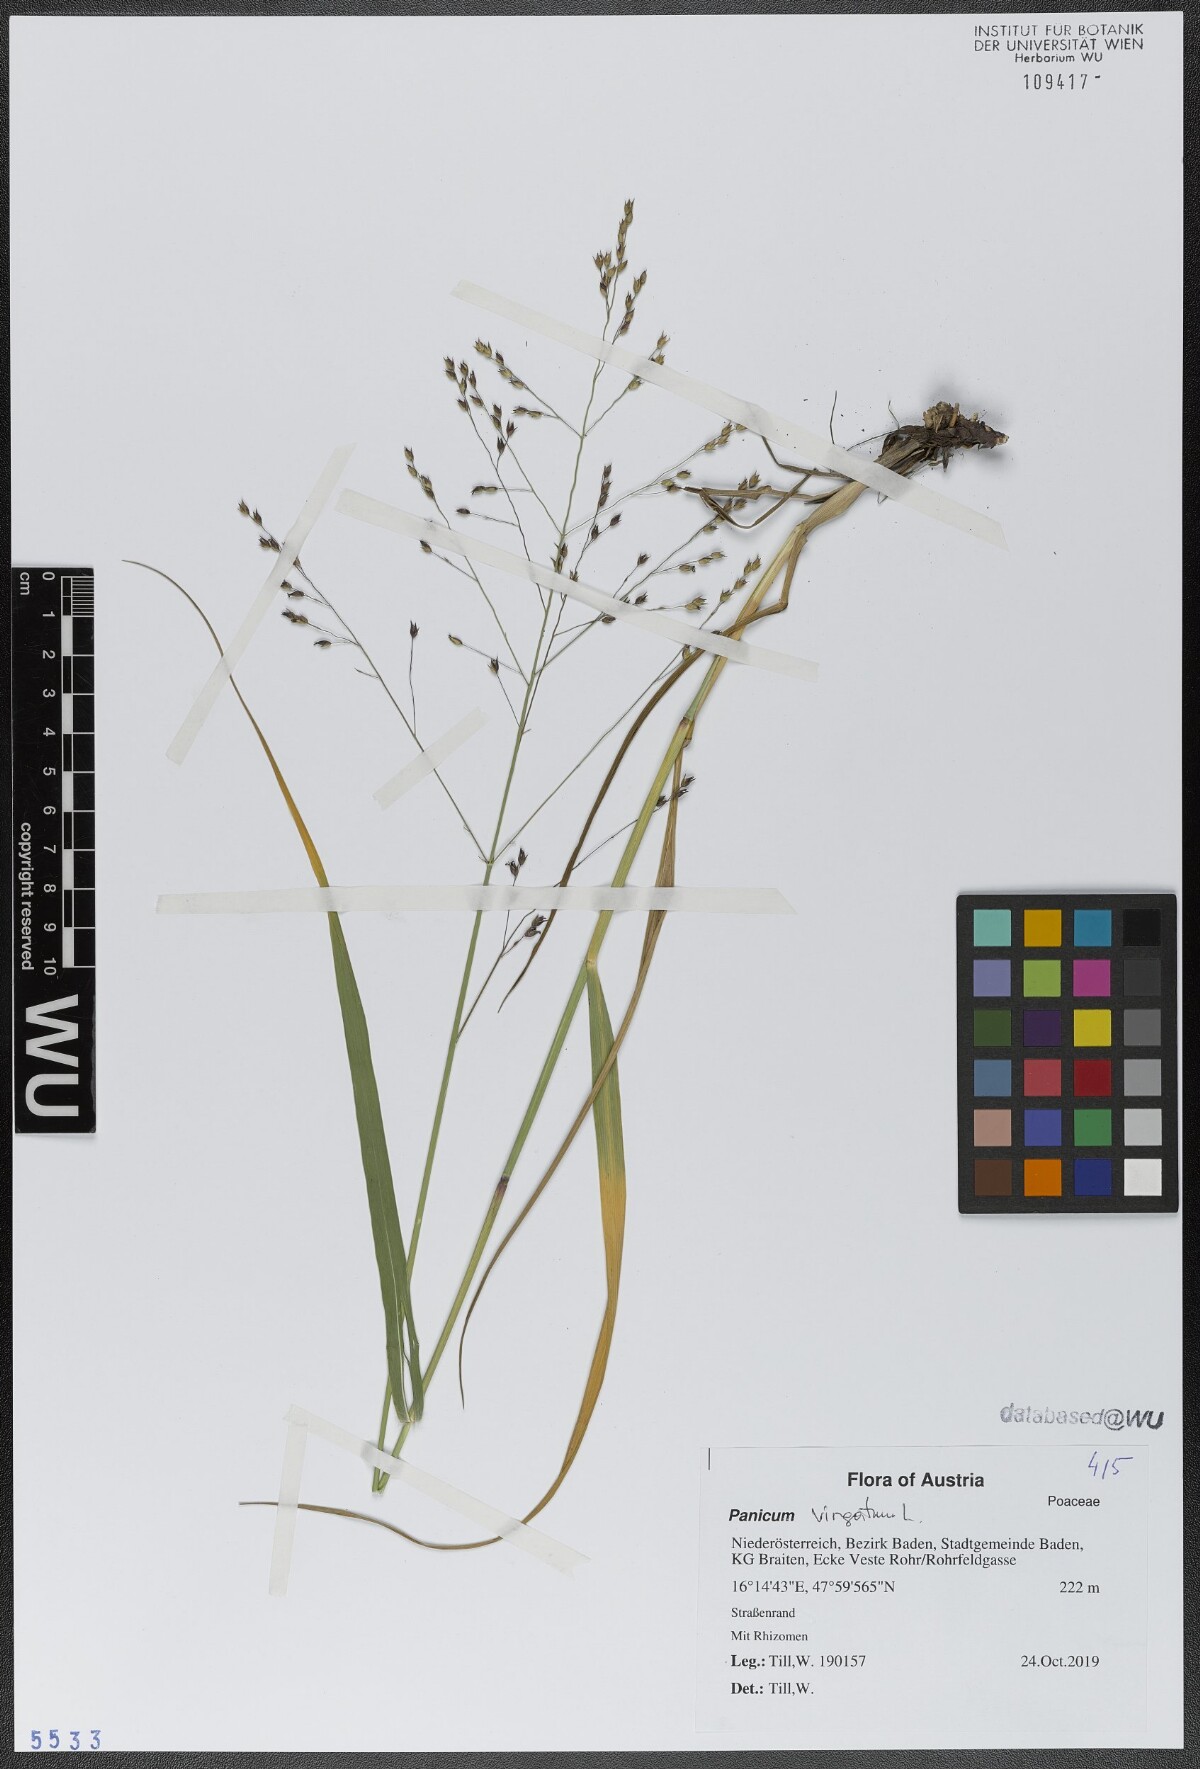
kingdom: Plantae
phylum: Tracheophyta
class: Liliopsida
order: Poales
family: Poaceae
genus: Panicum
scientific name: Panicum virgatum
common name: Switchgrass
